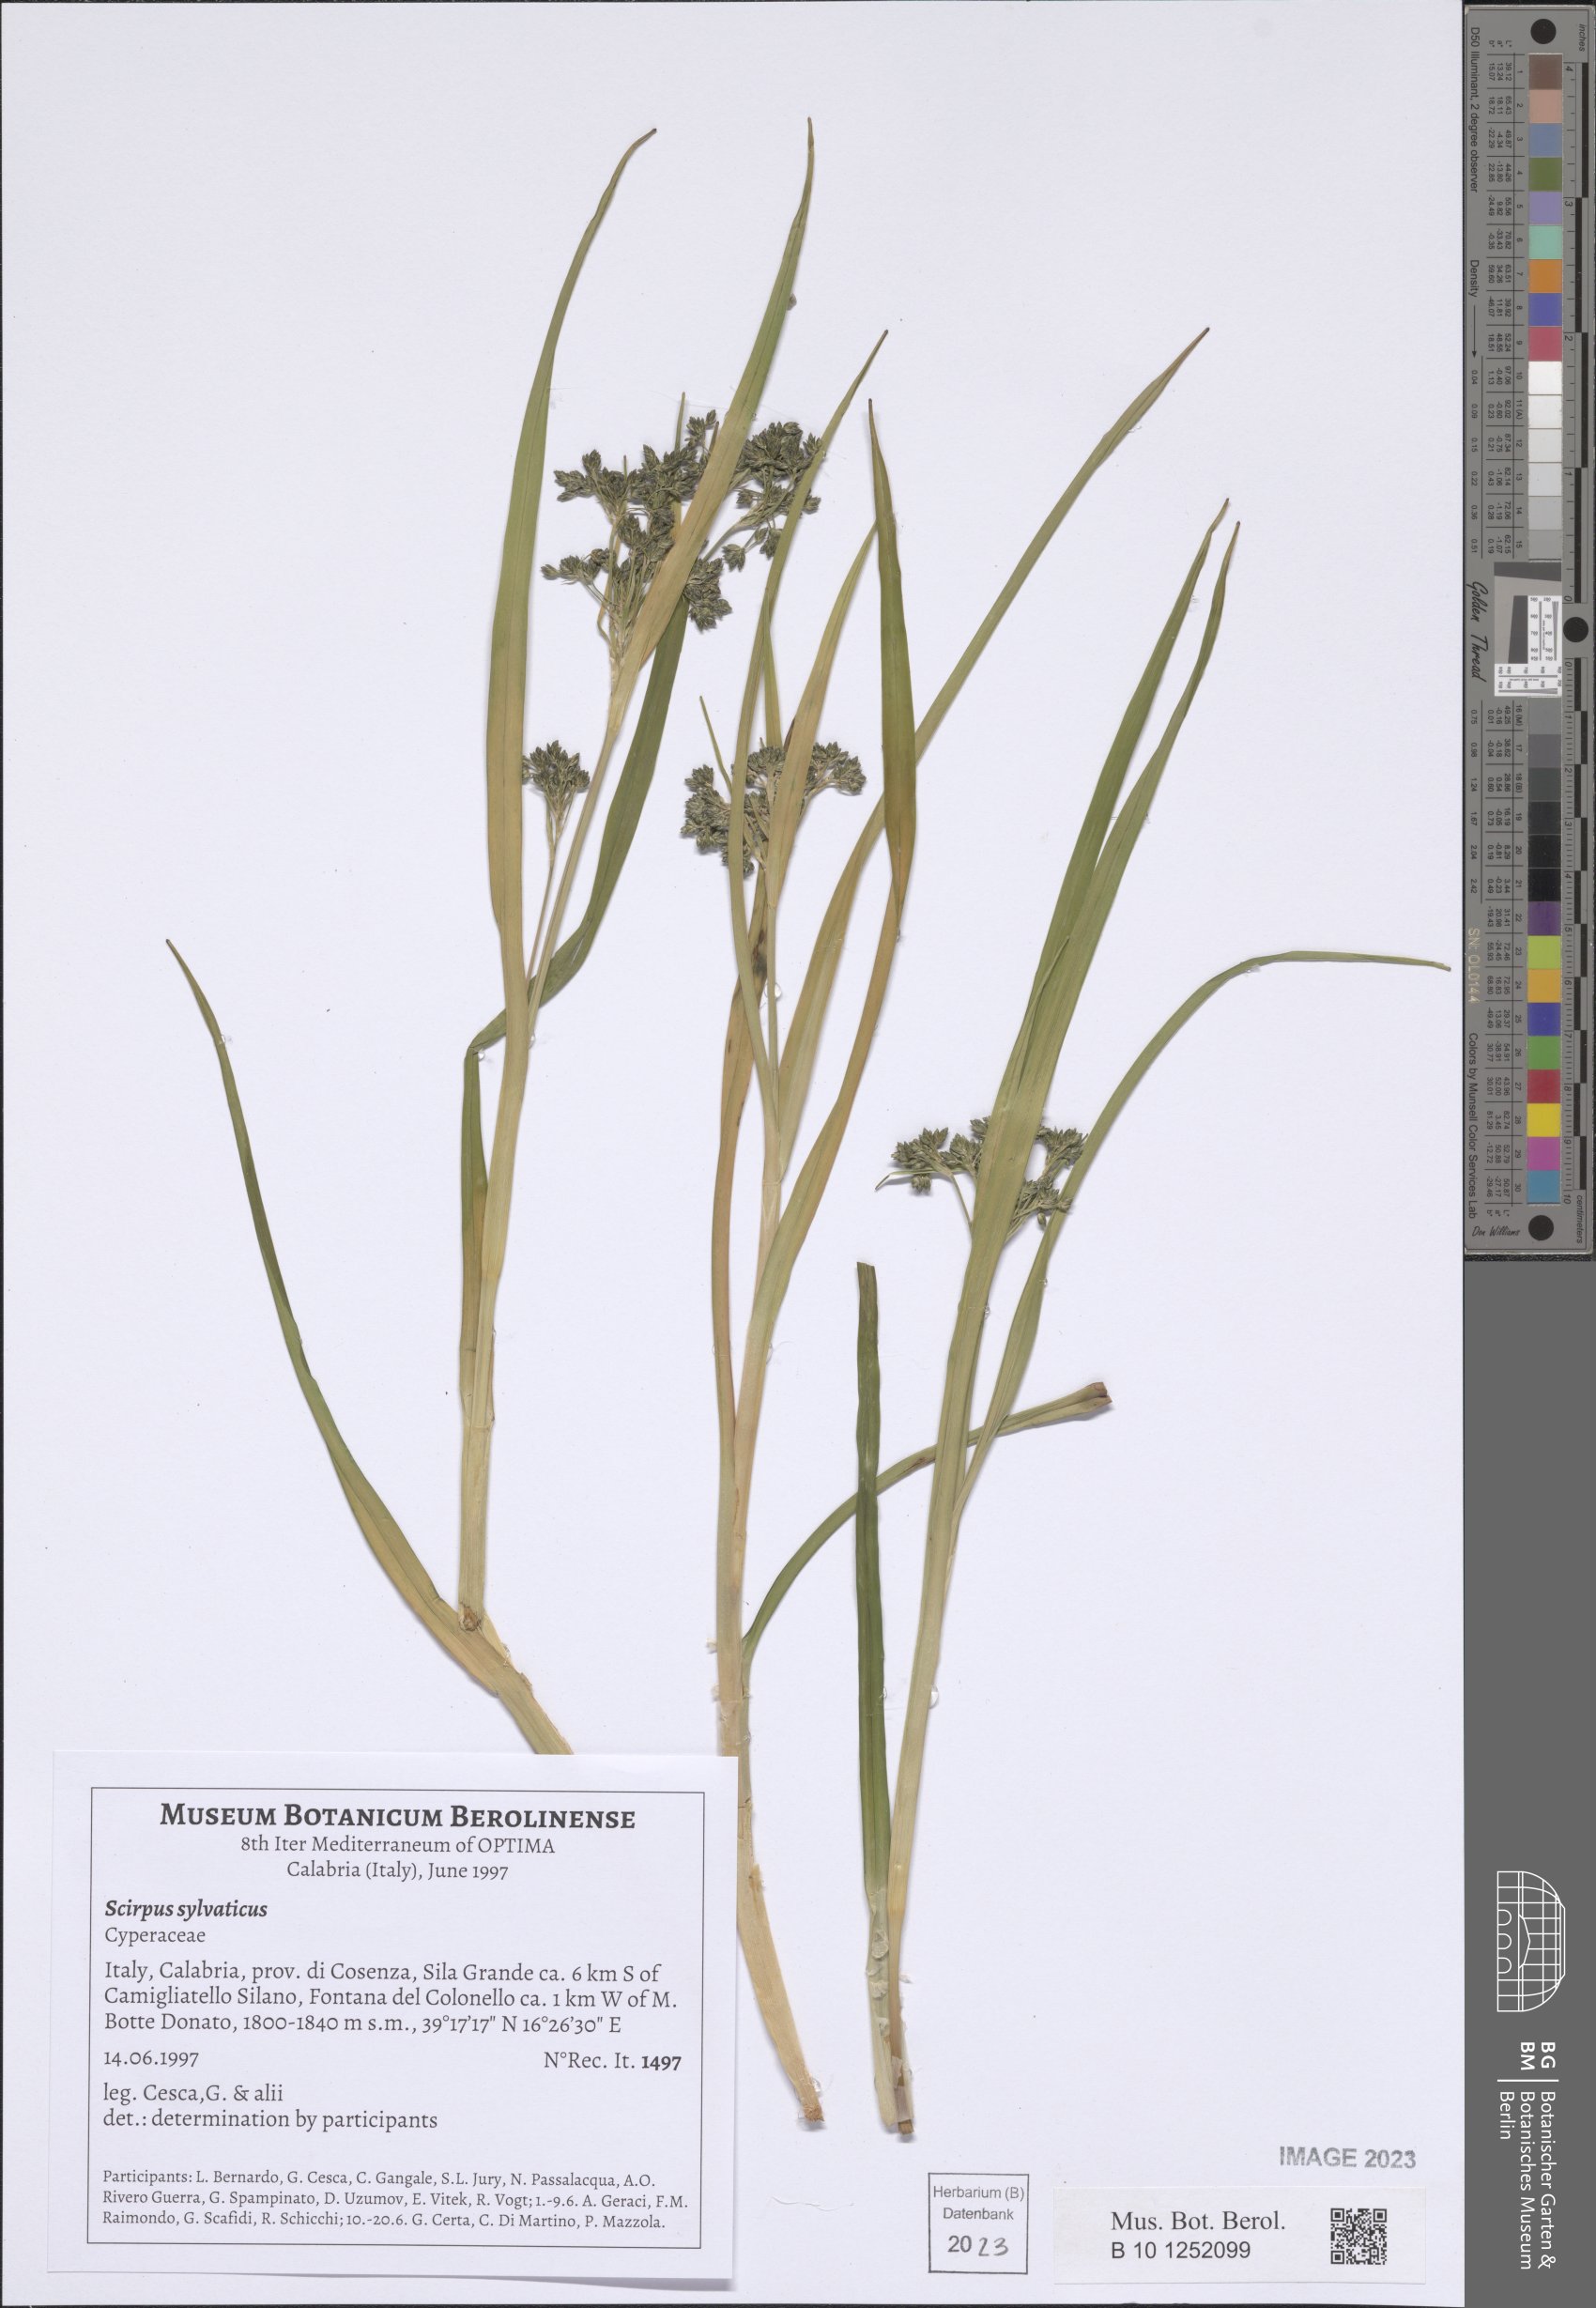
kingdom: Plantae
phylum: Tracheophyta
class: Liliopsida
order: Poales
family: Cyperaceae
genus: Scirpus
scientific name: Scirpus sylvaticus
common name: Wood club-rush
